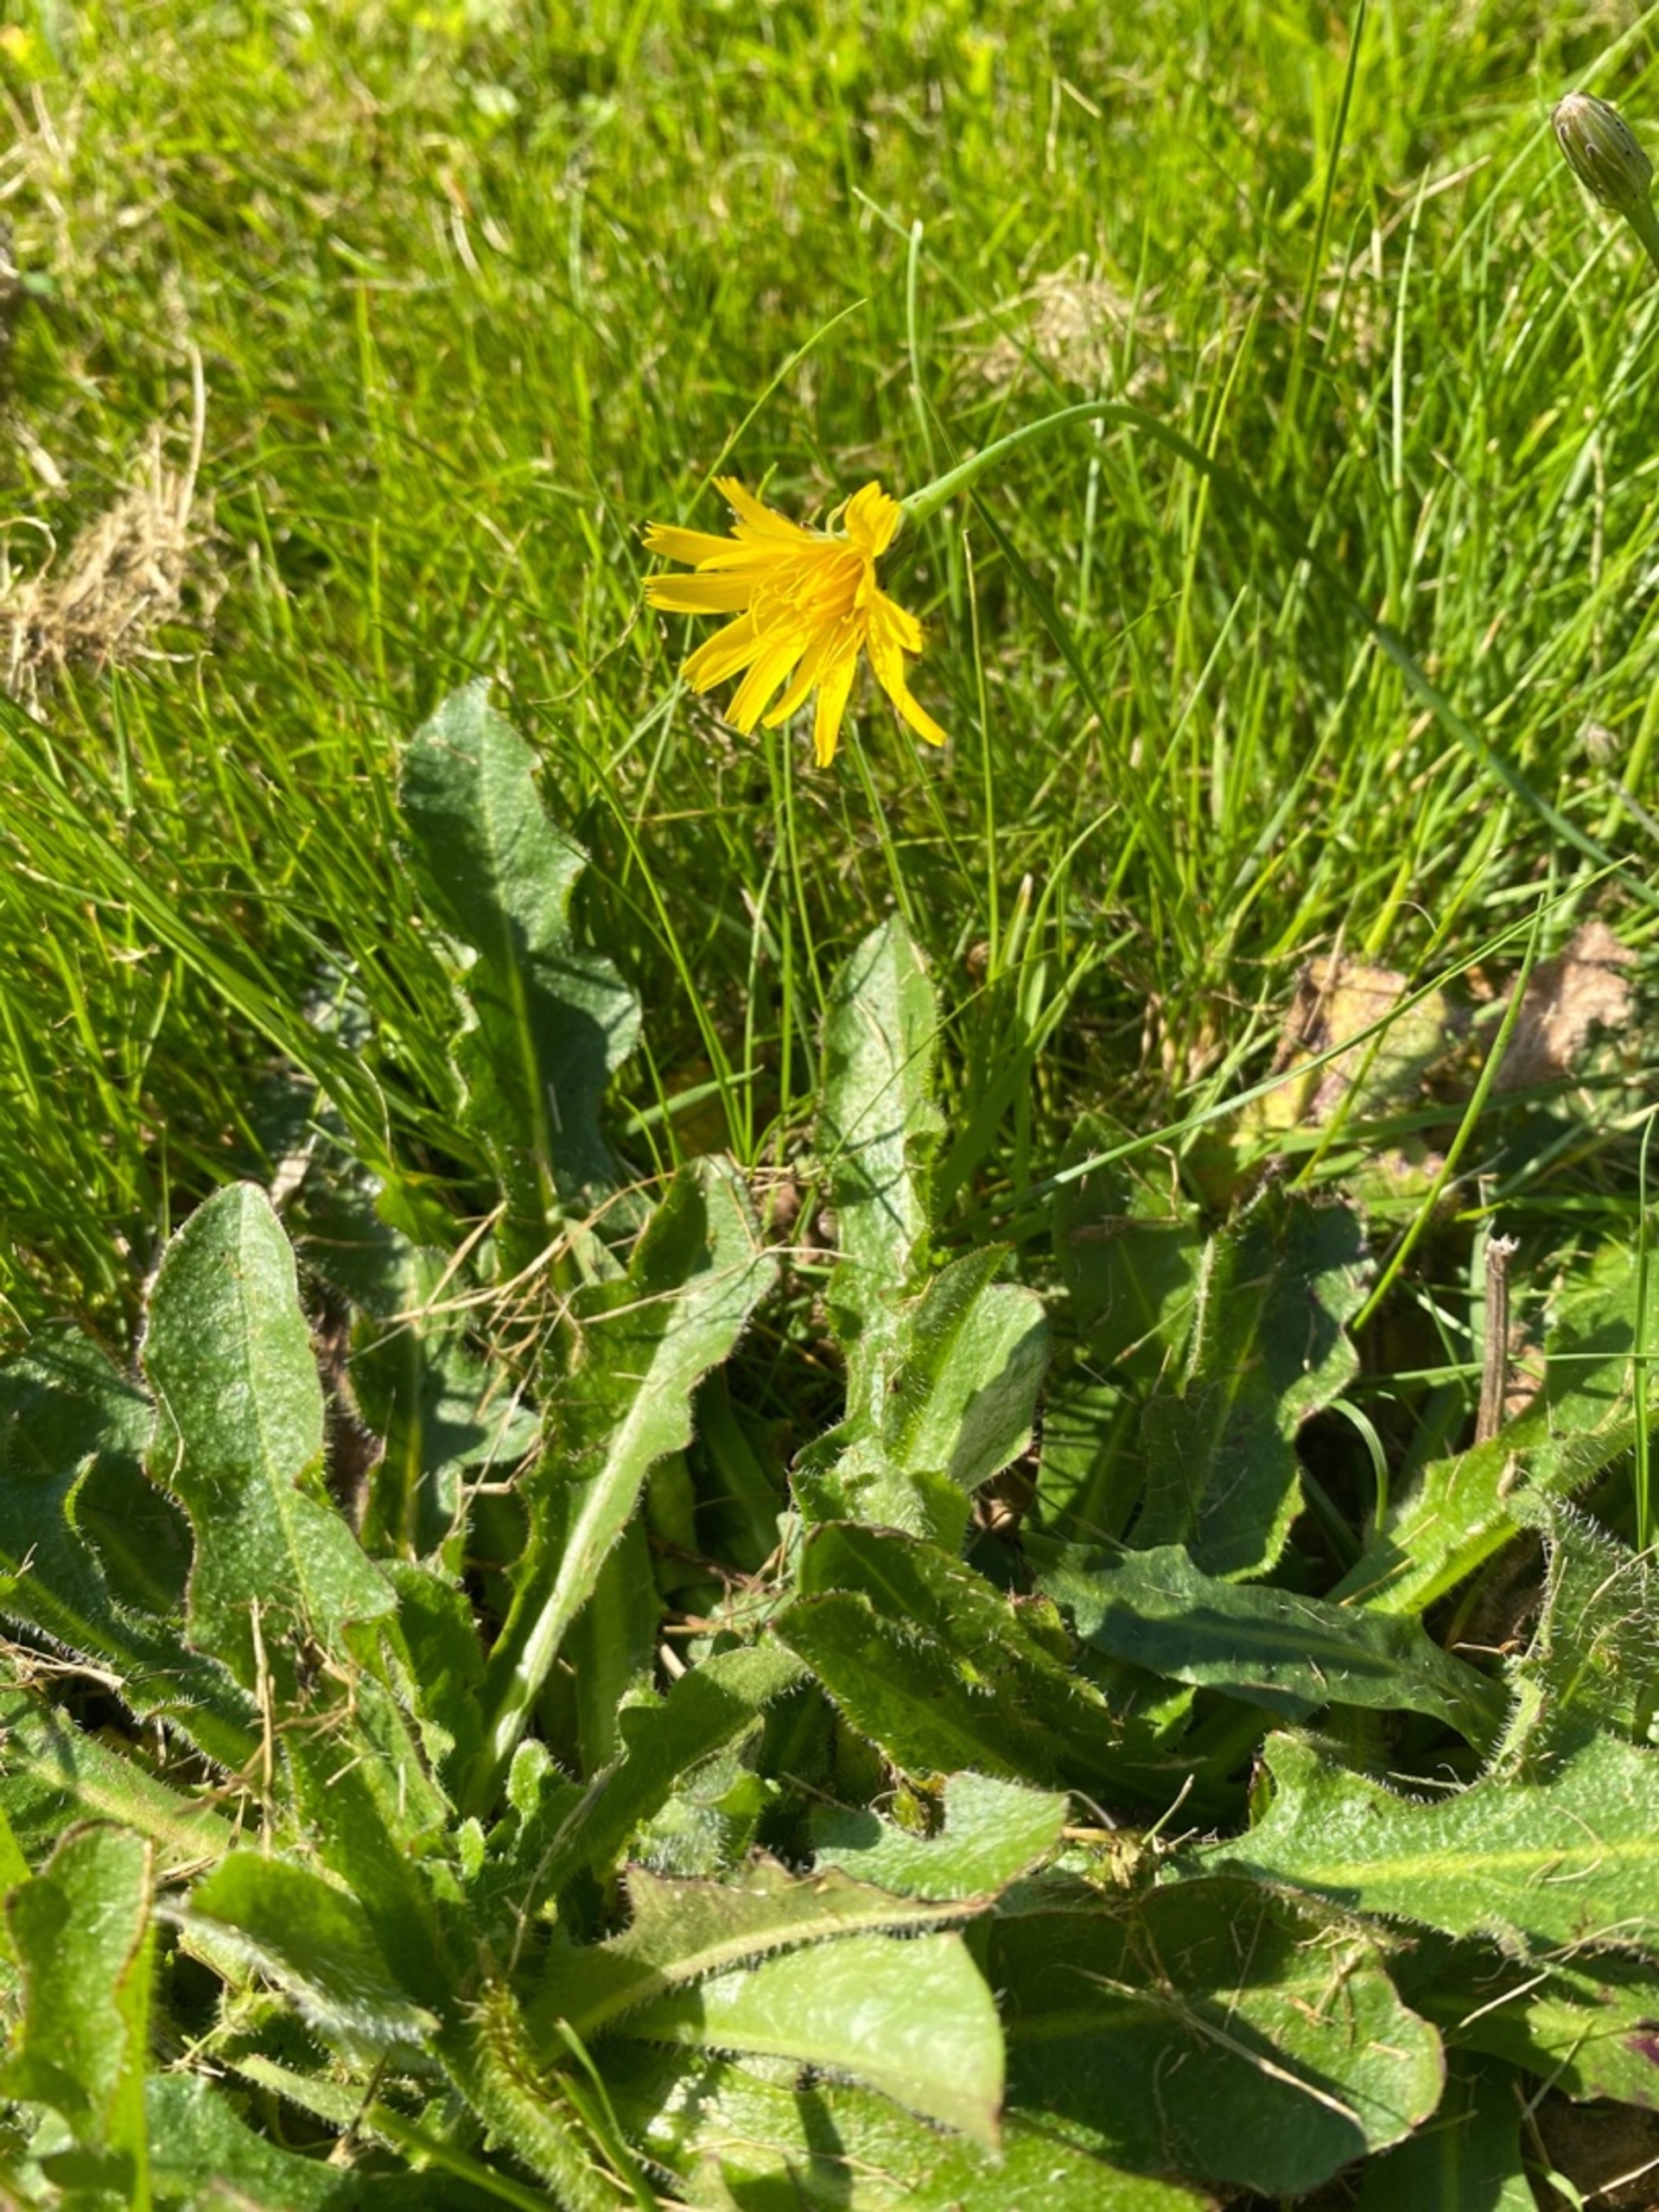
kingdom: Plantae
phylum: Tracheophyta
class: Magnoliopsida
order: Asterales
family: Asteraceae
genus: Hypochaeris
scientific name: Hypochaeris radicata
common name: Almindelig kongepen
